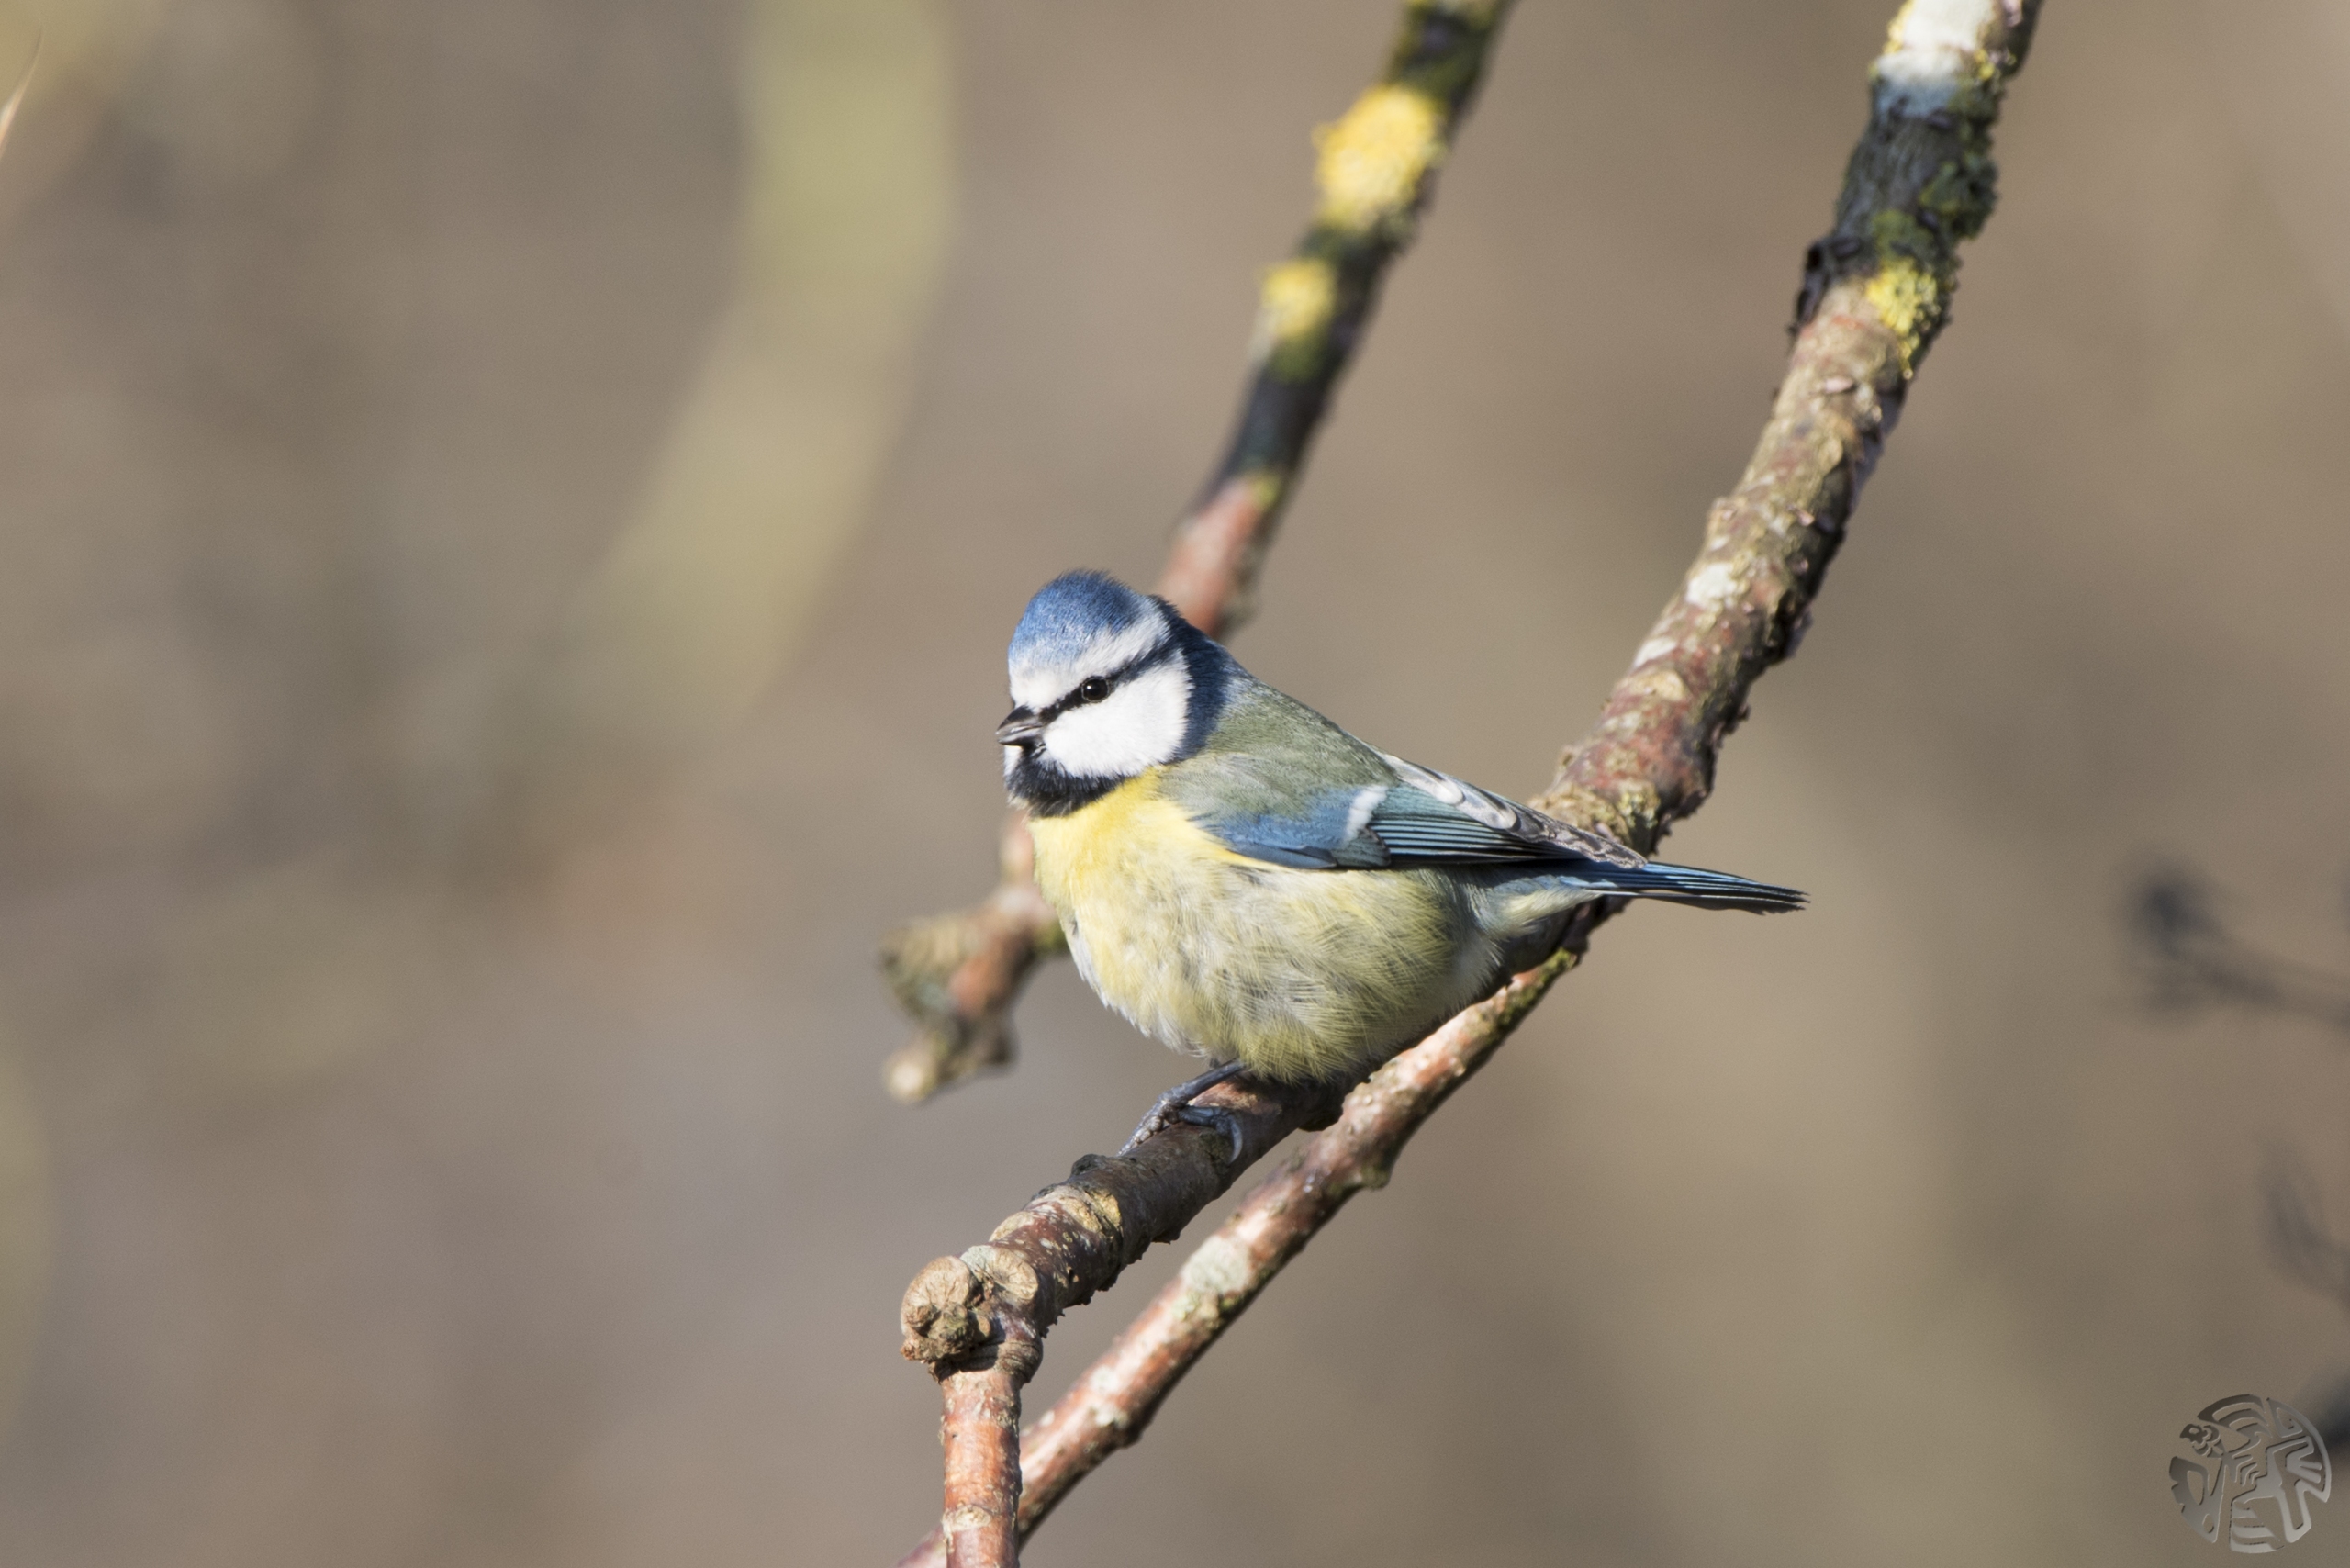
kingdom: Animalia
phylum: Chordata
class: Aves
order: Passeriformes
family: Paridae
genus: Cyanistes
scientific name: Cyanistes caeruleus
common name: Blåmejse
